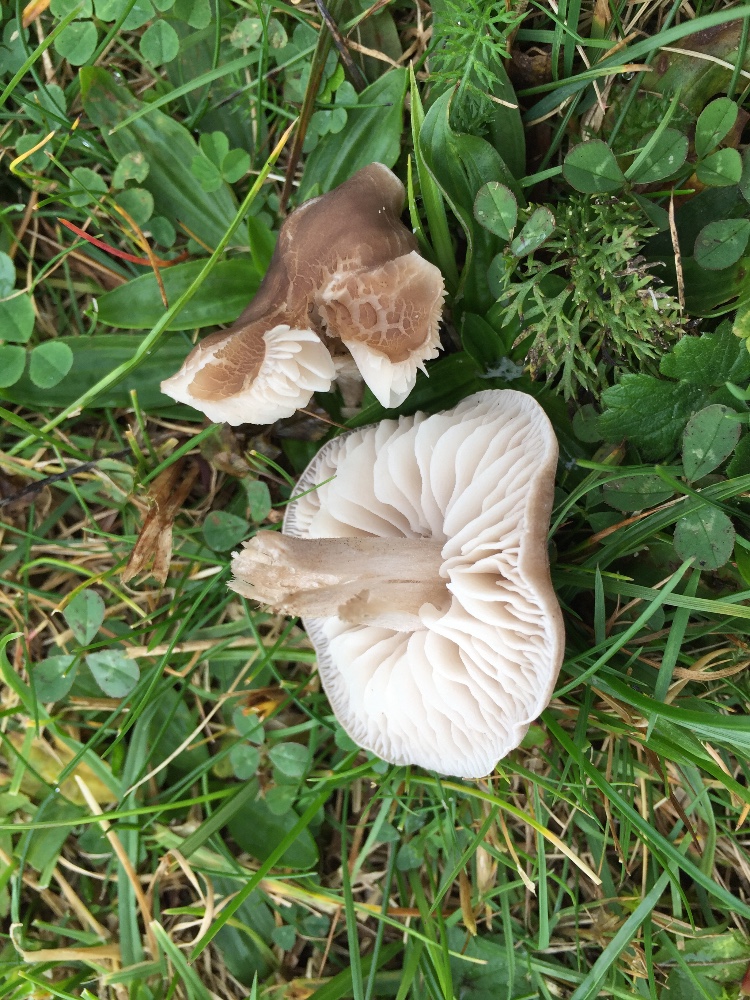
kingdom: Fungi
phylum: Basidiomycota
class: Agaricomycetes
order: Agaricales
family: Tricholomataceae
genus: Dermoloma
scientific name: Dermoloma cuneifolium
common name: eng-nonnehat
